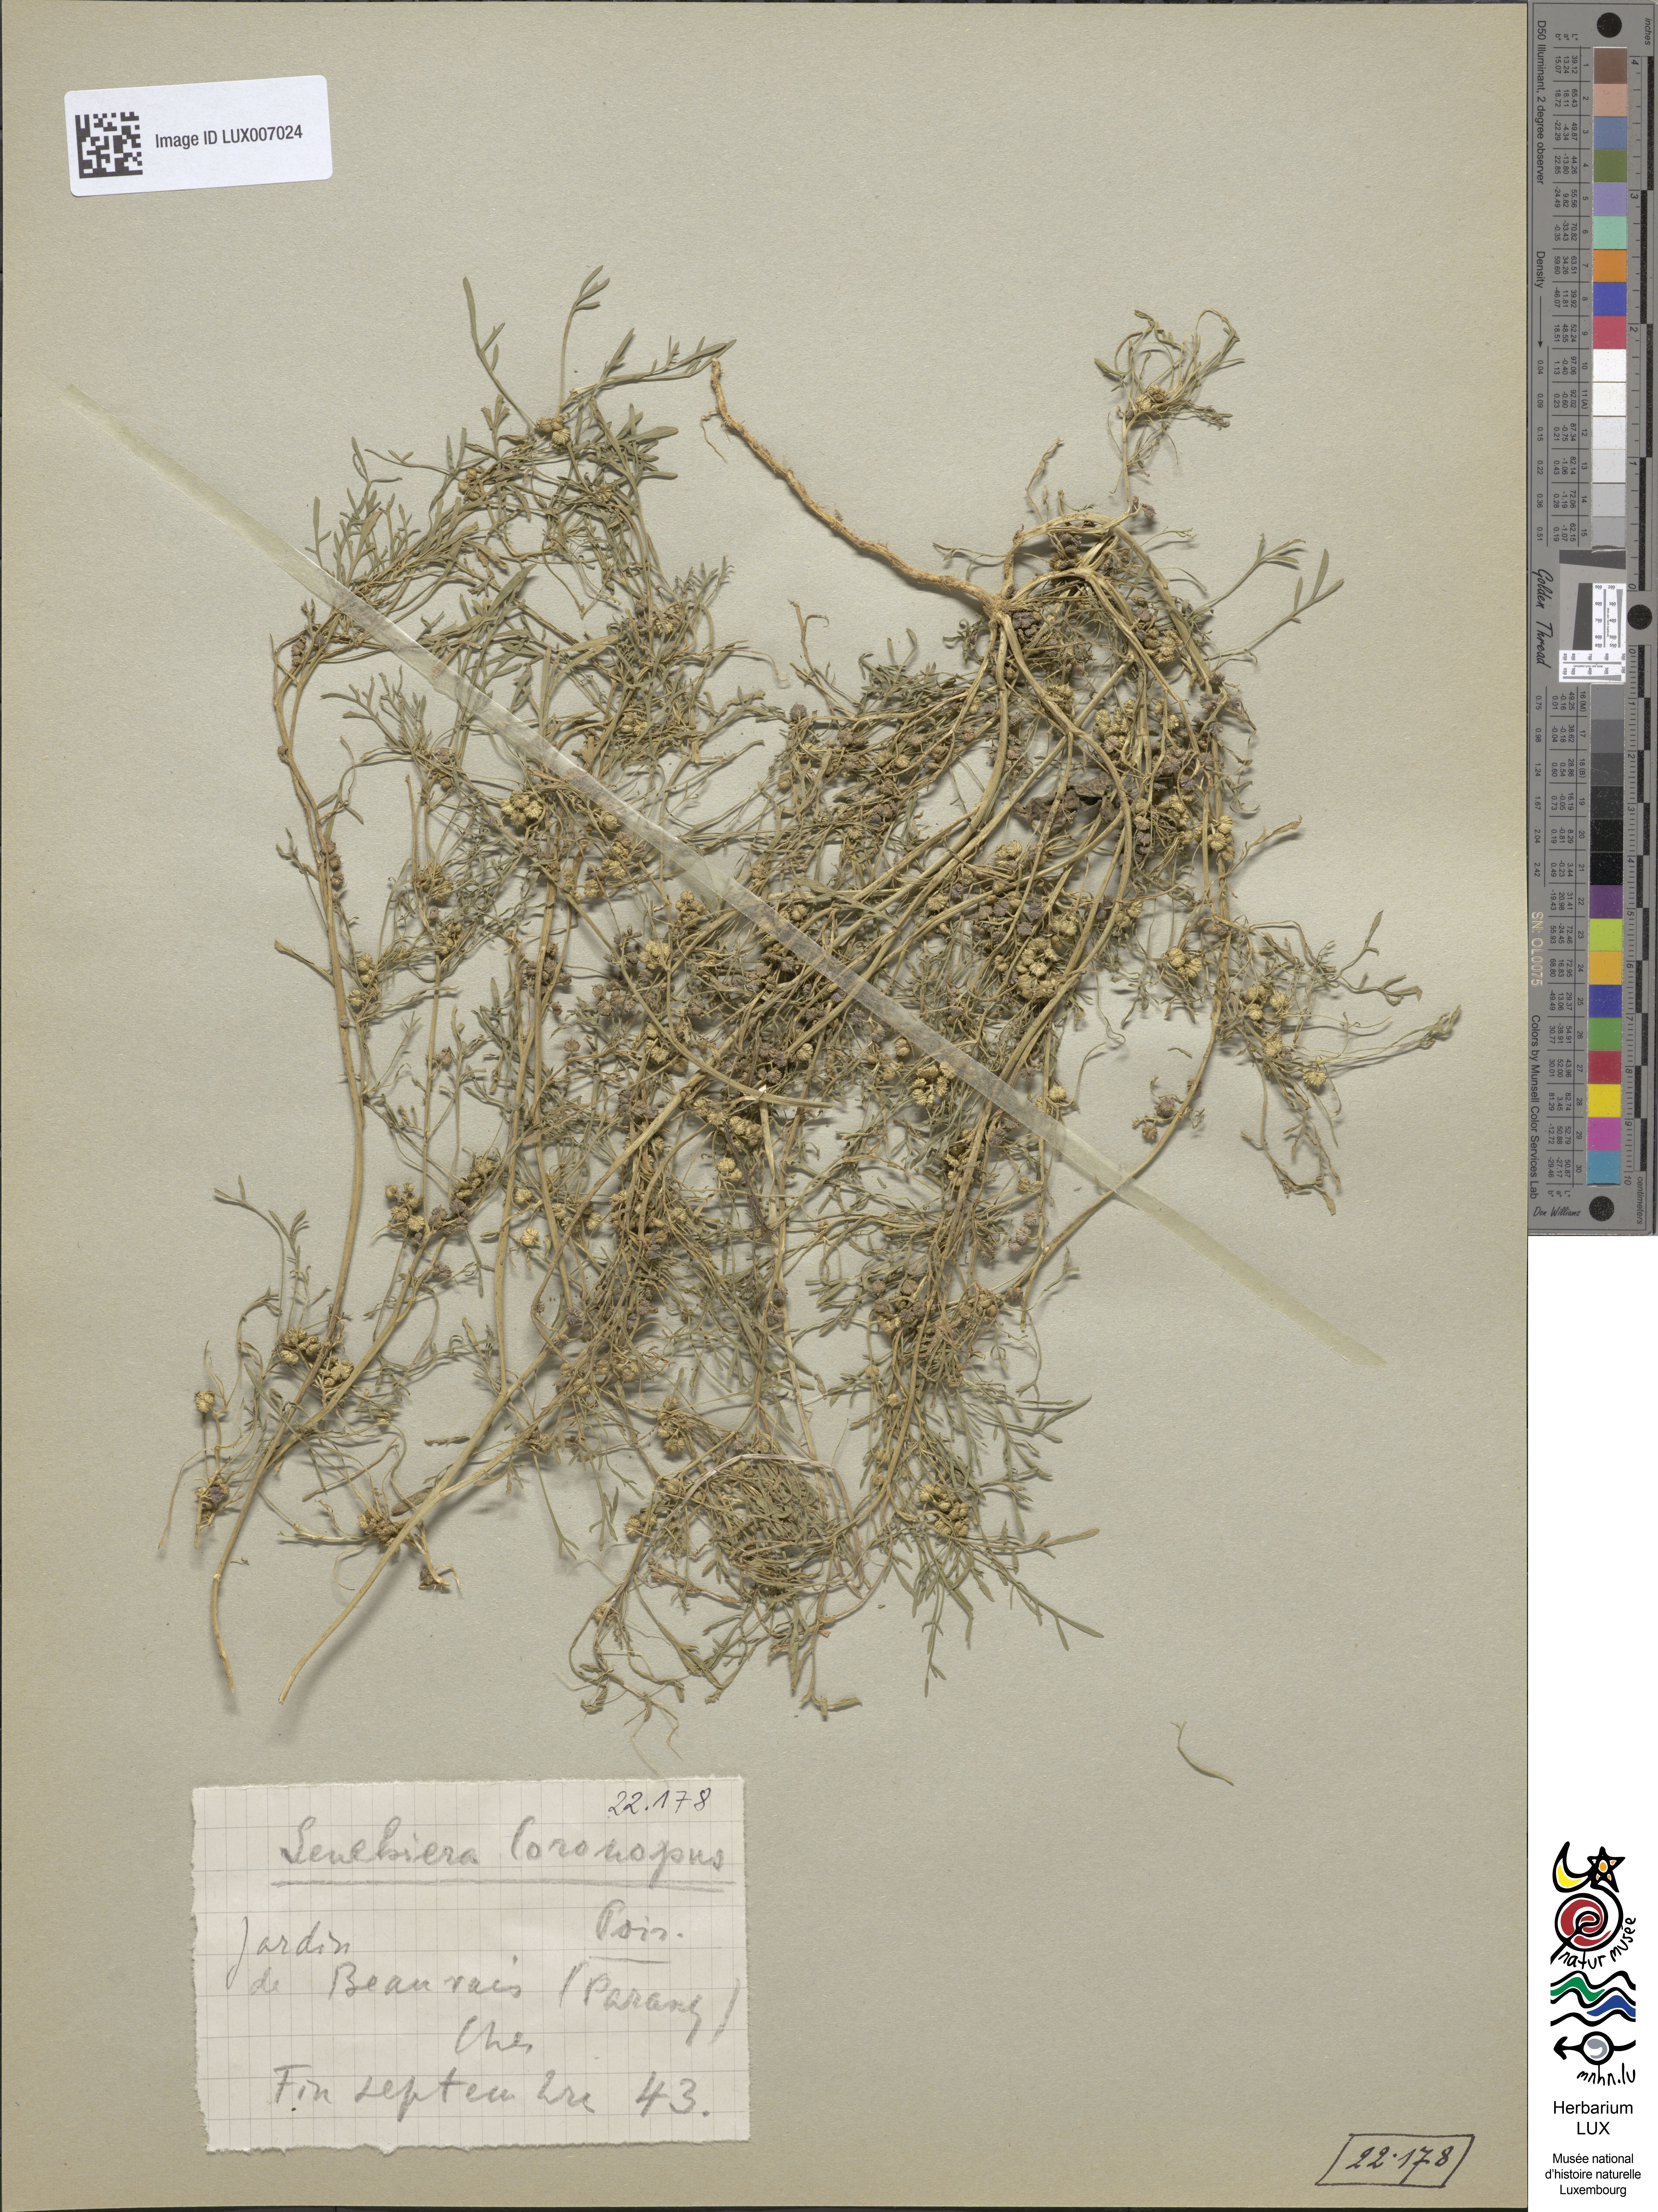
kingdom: Plantae
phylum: Tracheophyta
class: Magnoliopsida
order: Brassicales
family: Brassicaceae
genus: Lepidium
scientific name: Lepidium coronopus
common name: Greater swinecress
